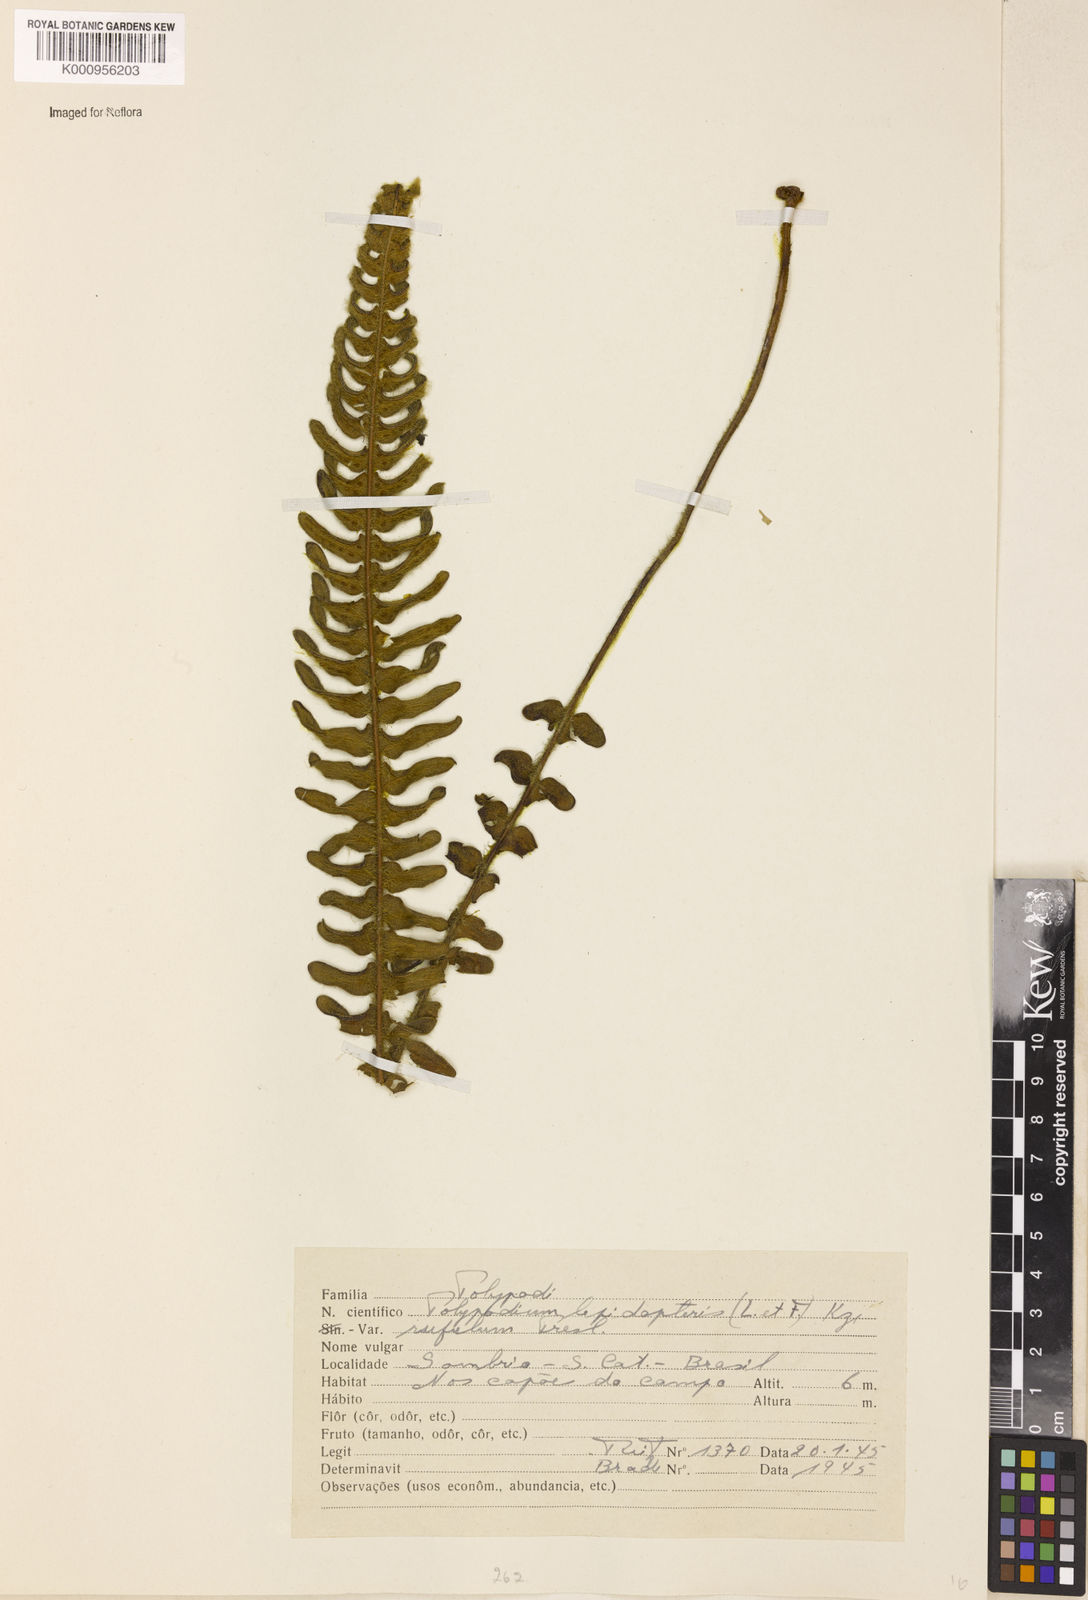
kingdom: Plantae
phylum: Tracheophyta
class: Polypodiopsida
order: Polypodiales
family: Polypodiaceae
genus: Pleopeltis
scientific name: Pleopeltis lepidopteris
